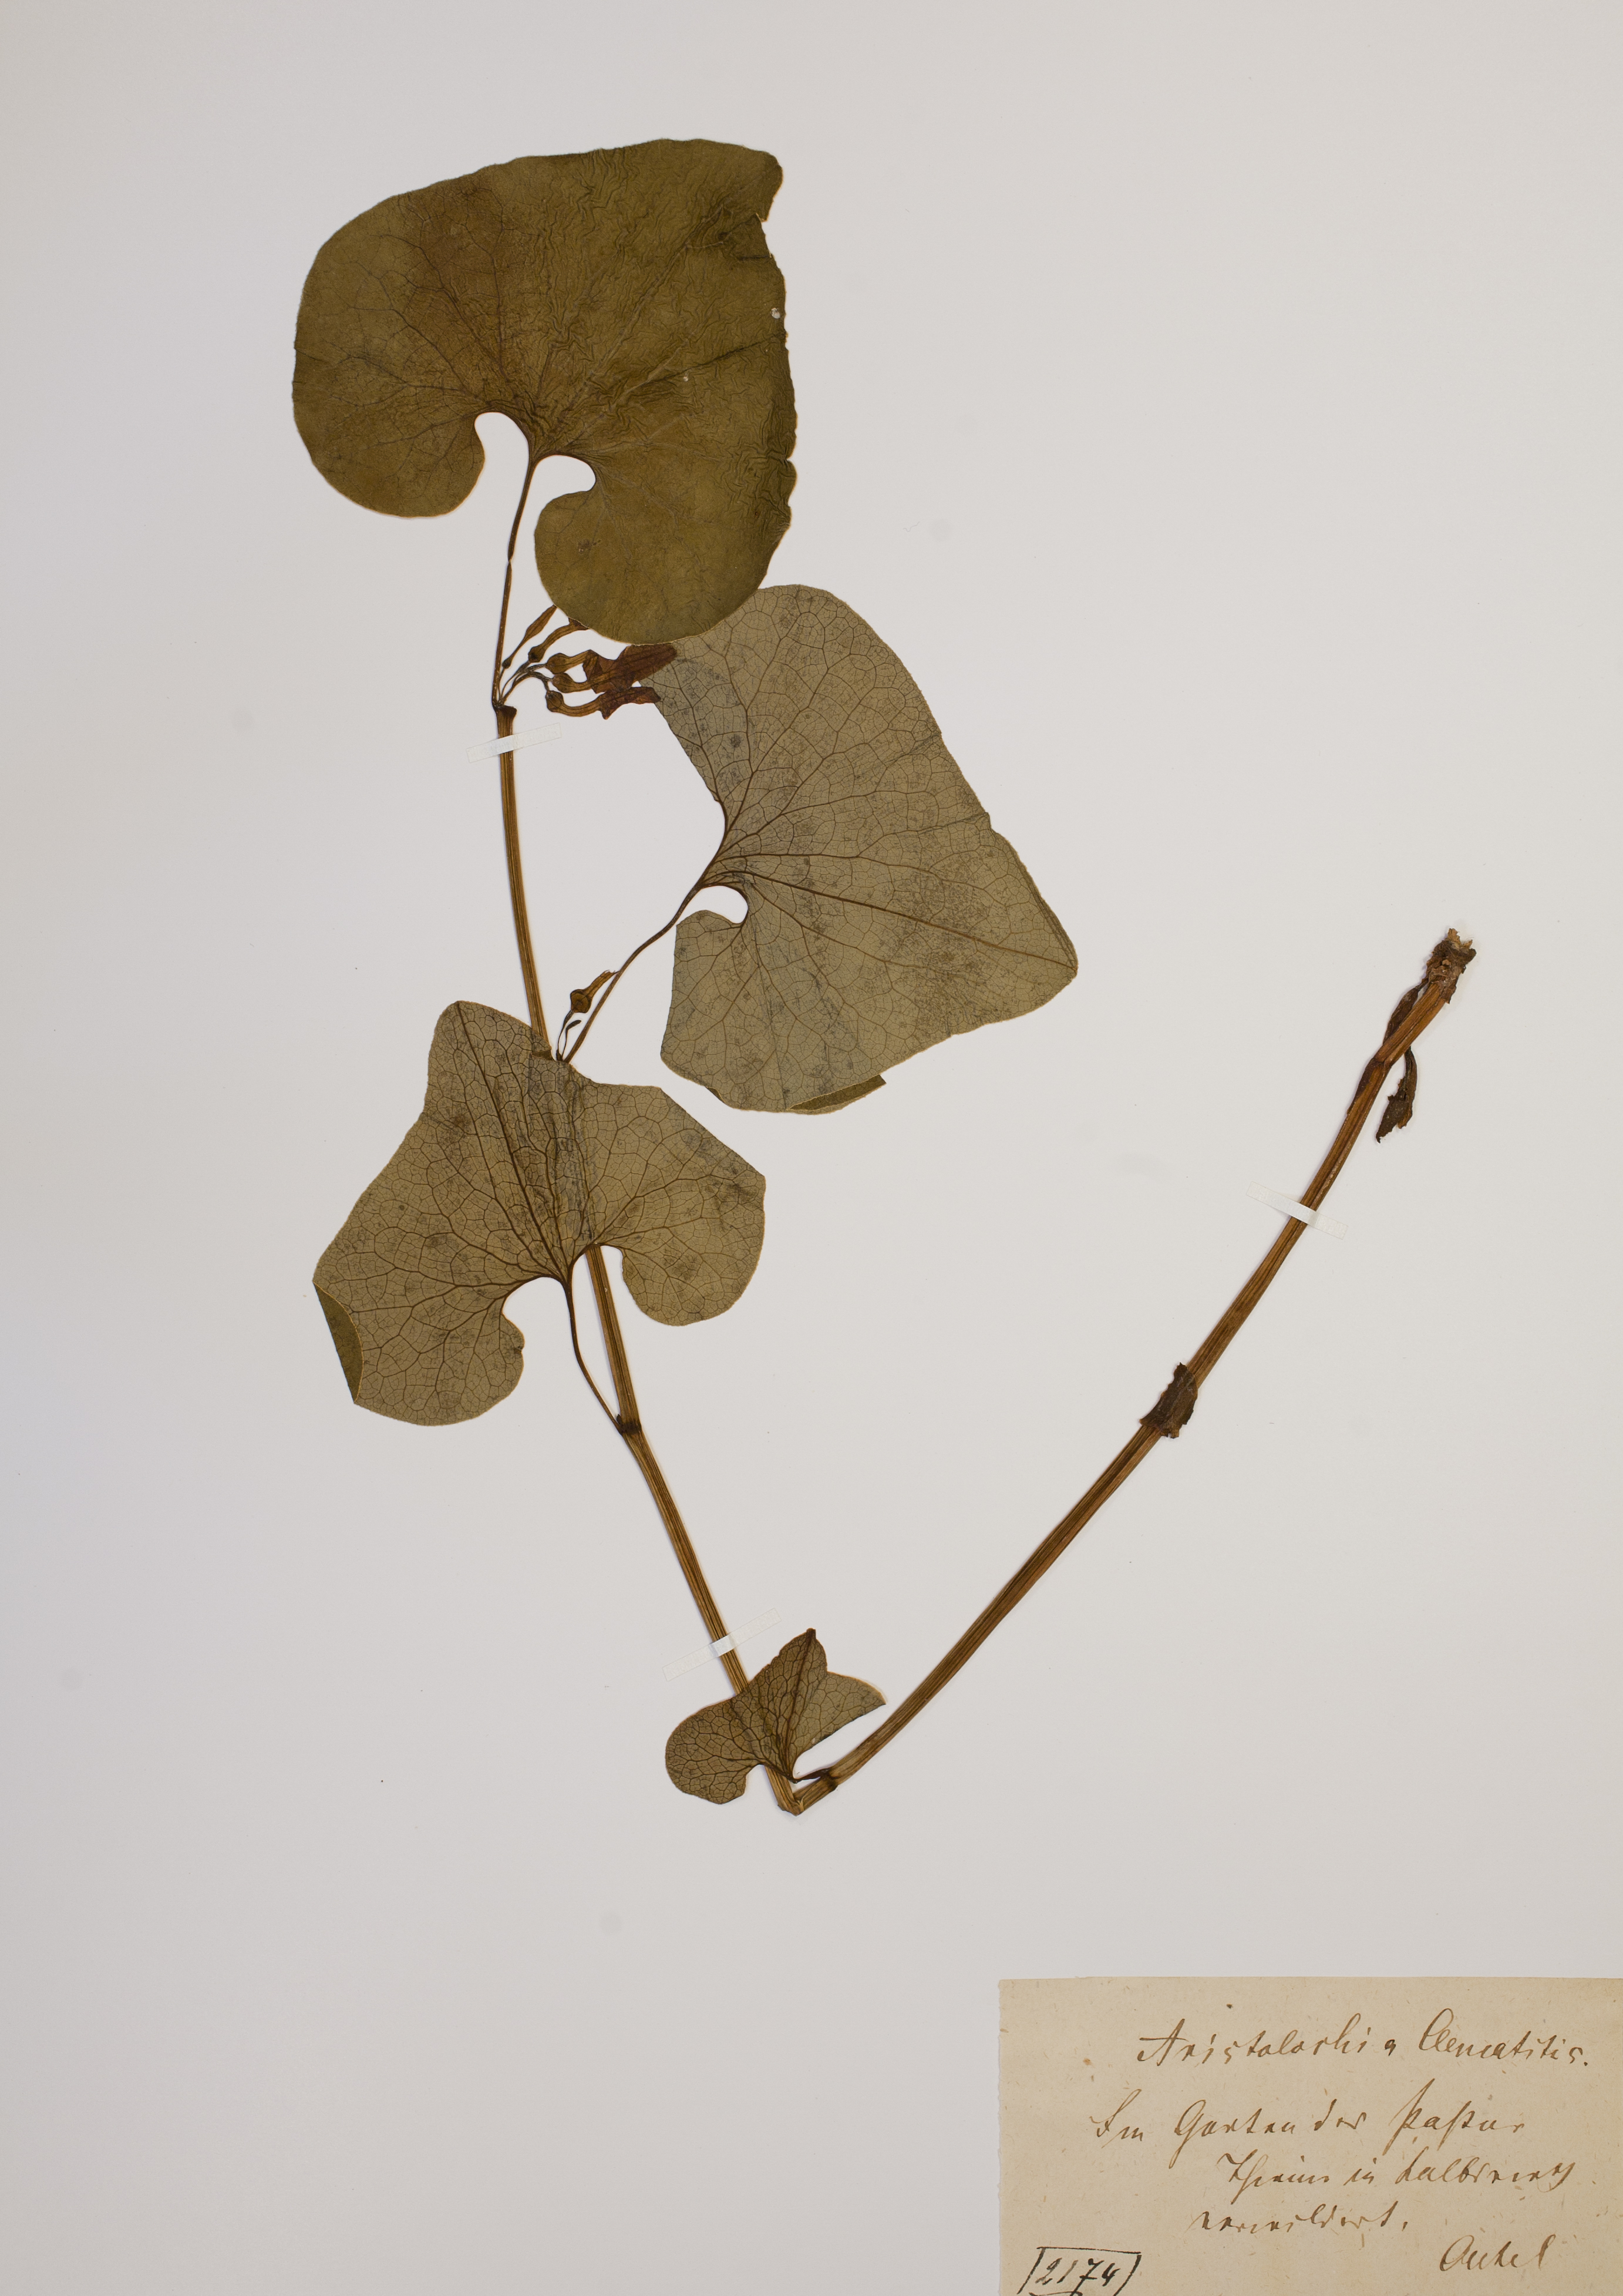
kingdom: Plantae
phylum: Tracheophyta
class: Magnoliopsida
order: Piperales
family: Aristolochiaceae
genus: Aristolochia
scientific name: Aristolochia clematitis
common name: Birthwort
